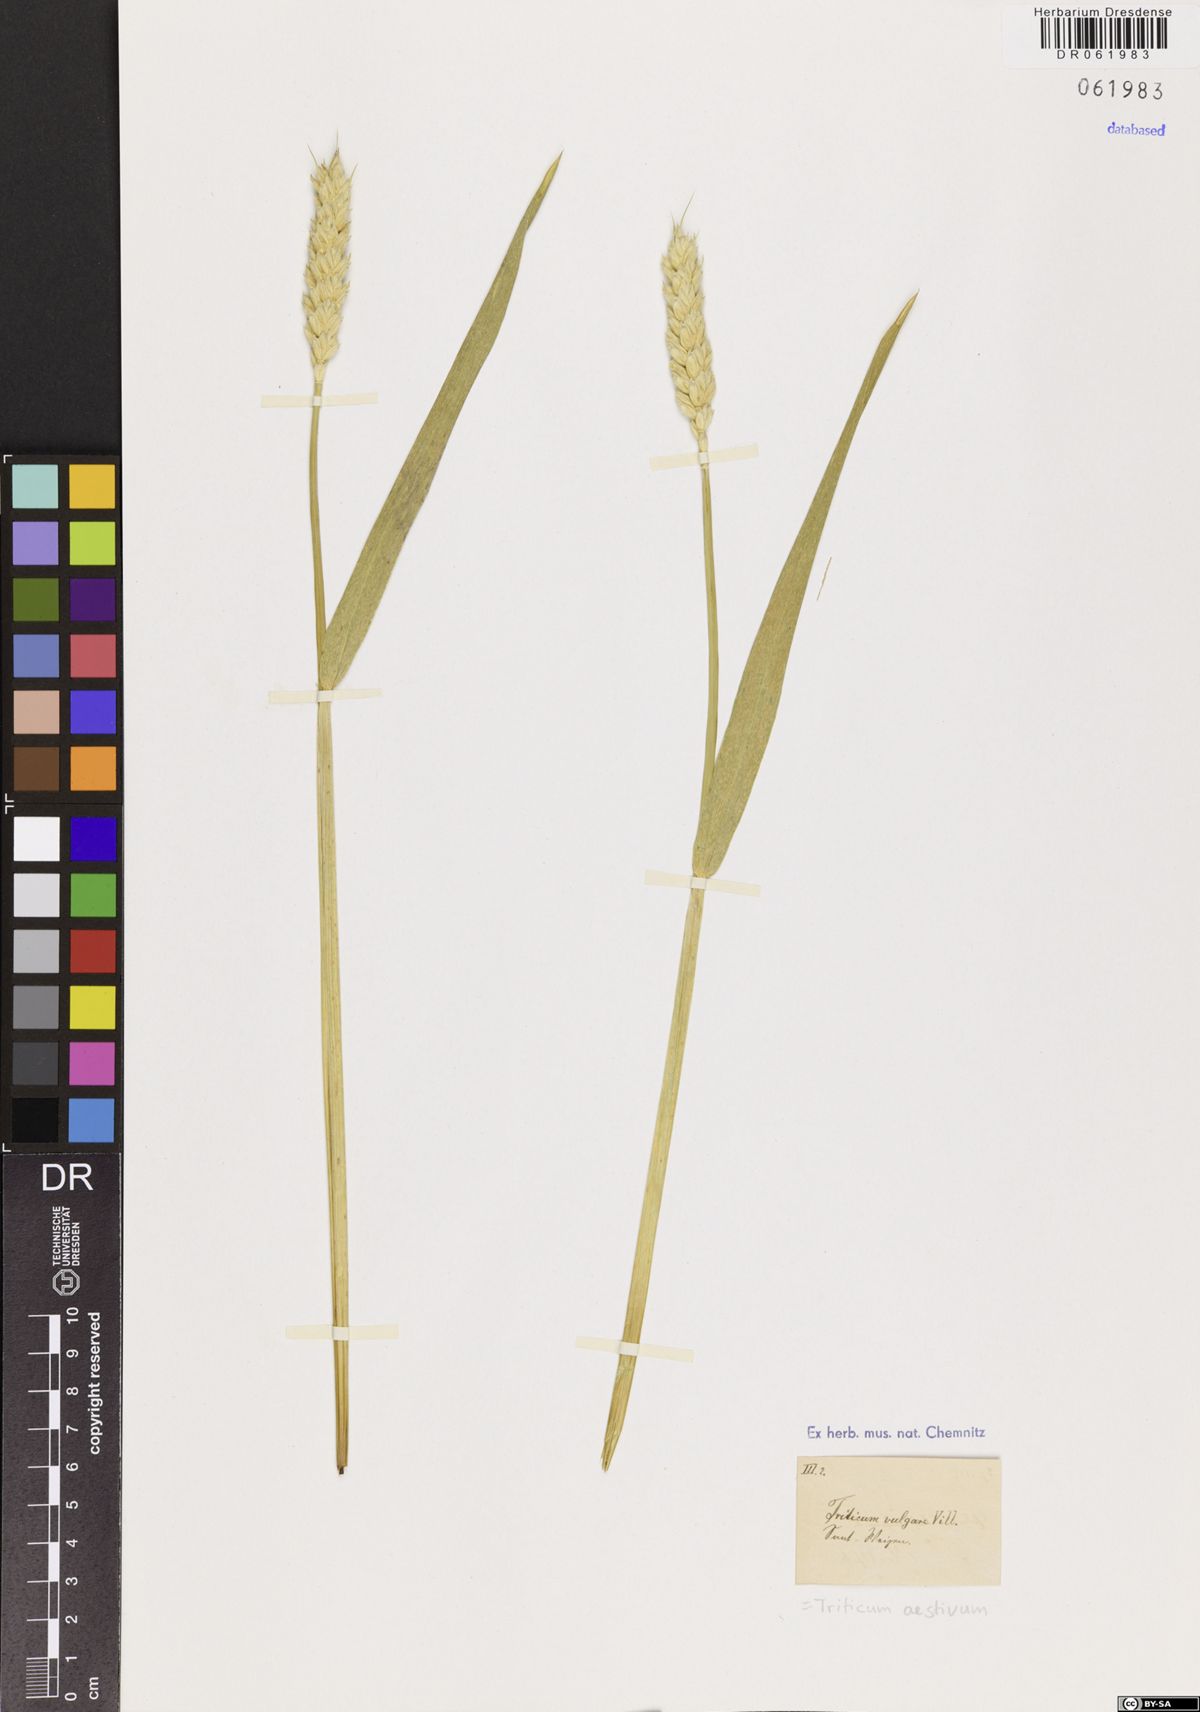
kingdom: Plantae
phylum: Tracheophyta
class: Liliopsida
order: Poales
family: Poaceae
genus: Triticum
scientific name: Triticum aestivum
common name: Common wheat
